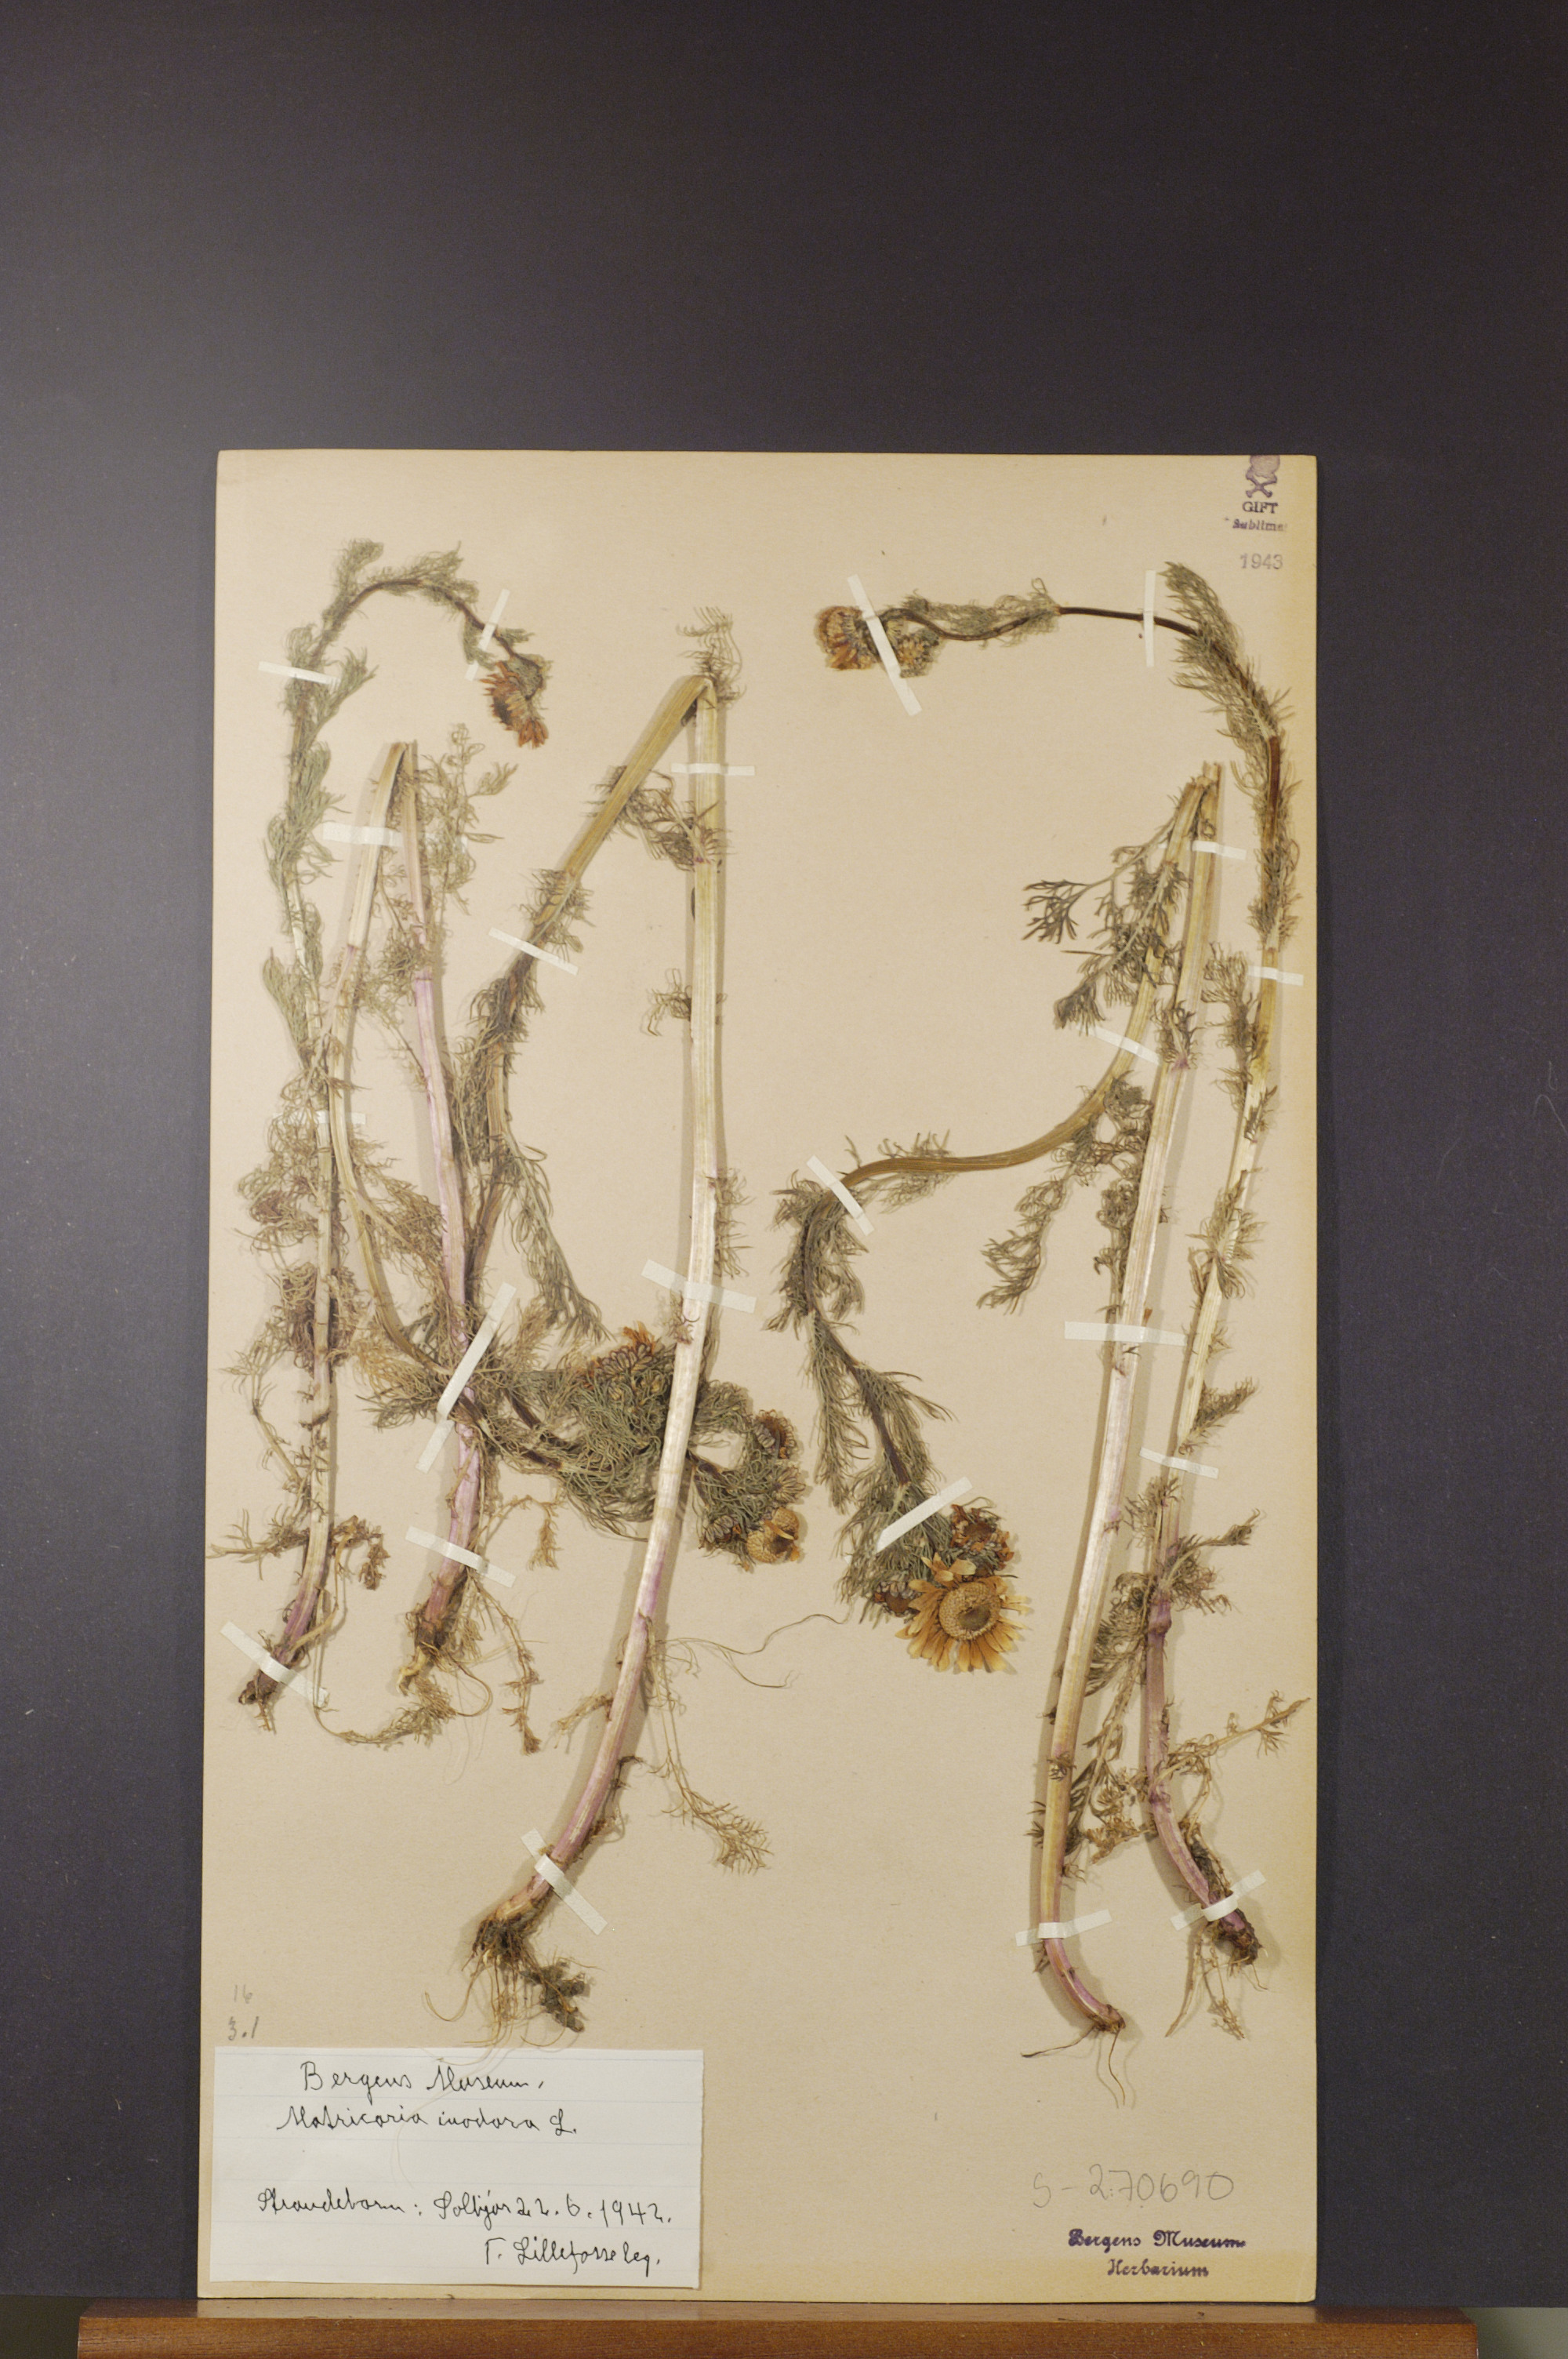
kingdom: Plantae
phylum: Tracheophyta
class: Magnoliopsida
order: Asterales
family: Asteraceae
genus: Tripleurospermum
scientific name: Tripleurospermum inodorum
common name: Scentless mayweed
